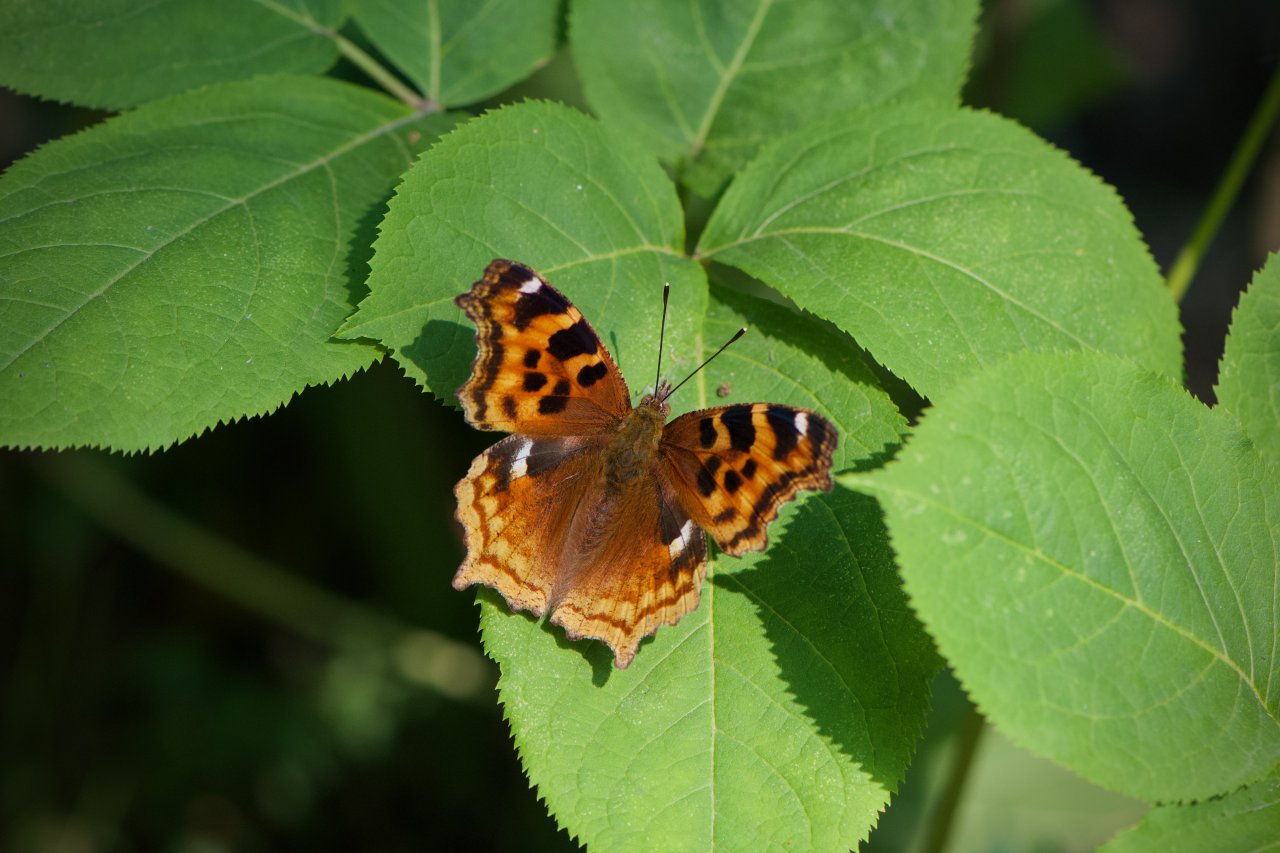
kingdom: Animalia
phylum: Arthropoda
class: Insecta
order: Lepidoptera
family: Nymphalidae
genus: Polygonia
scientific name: Polygonia vaualbum
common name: Compton Tortoiseshell
